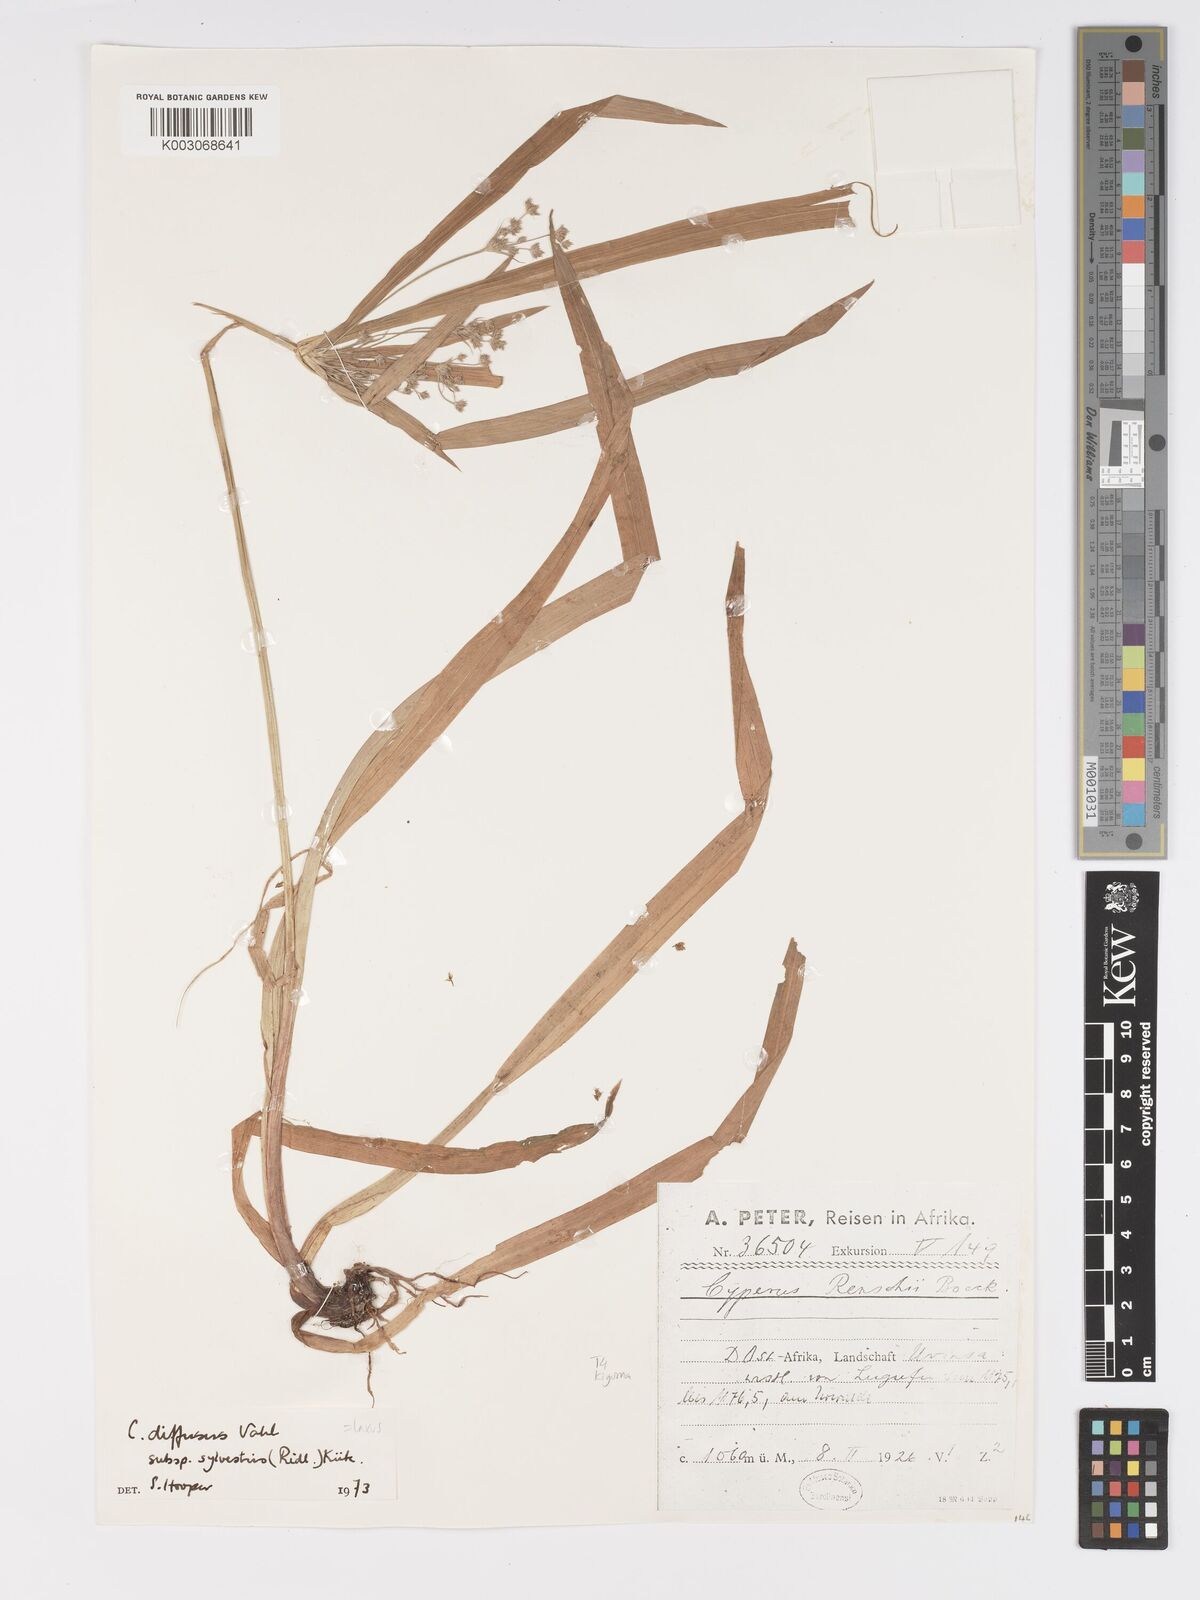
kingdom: Plantae
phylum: Tracheophyta
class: Liliopsida
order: Poales
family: Cyperaceae
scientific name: Cyperaceae
